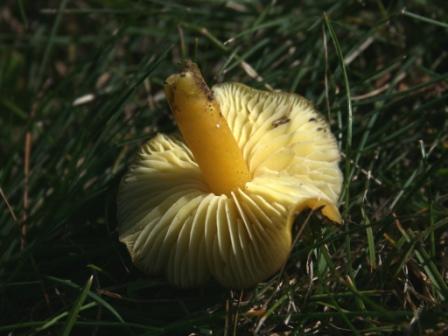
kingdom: Fungi
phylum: Basidiomycota
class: Agaricomycetes
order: Agaricales
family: Hygrophoraceae
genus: Hygrocybe
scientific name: Hygrocybe chlorophana
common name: gul vokshat
